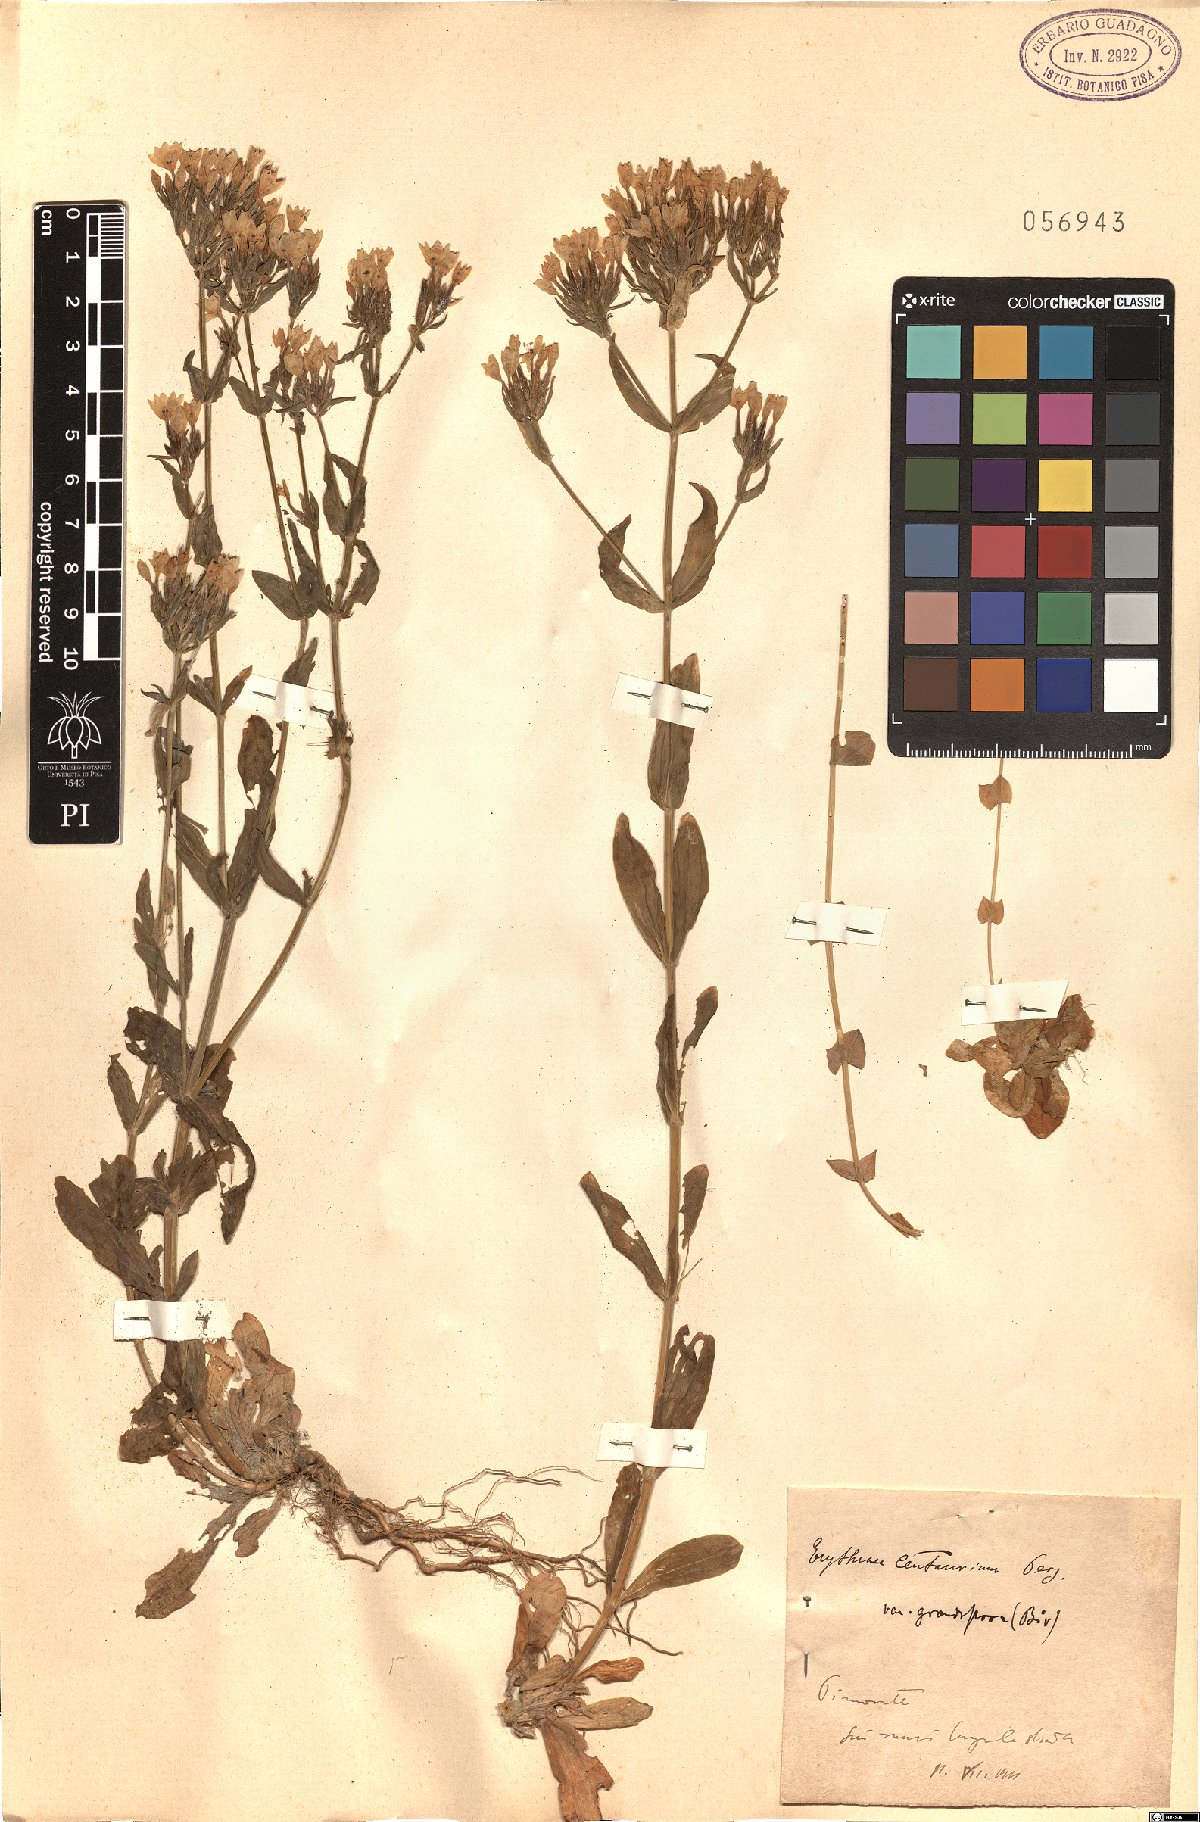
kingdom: Plantae
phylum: Tracheophyta
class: Magnoliopsida
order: Gentianales
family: Gentianaceae
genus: Centaurium
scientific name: Centaurium erythraea
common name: Common centaury
